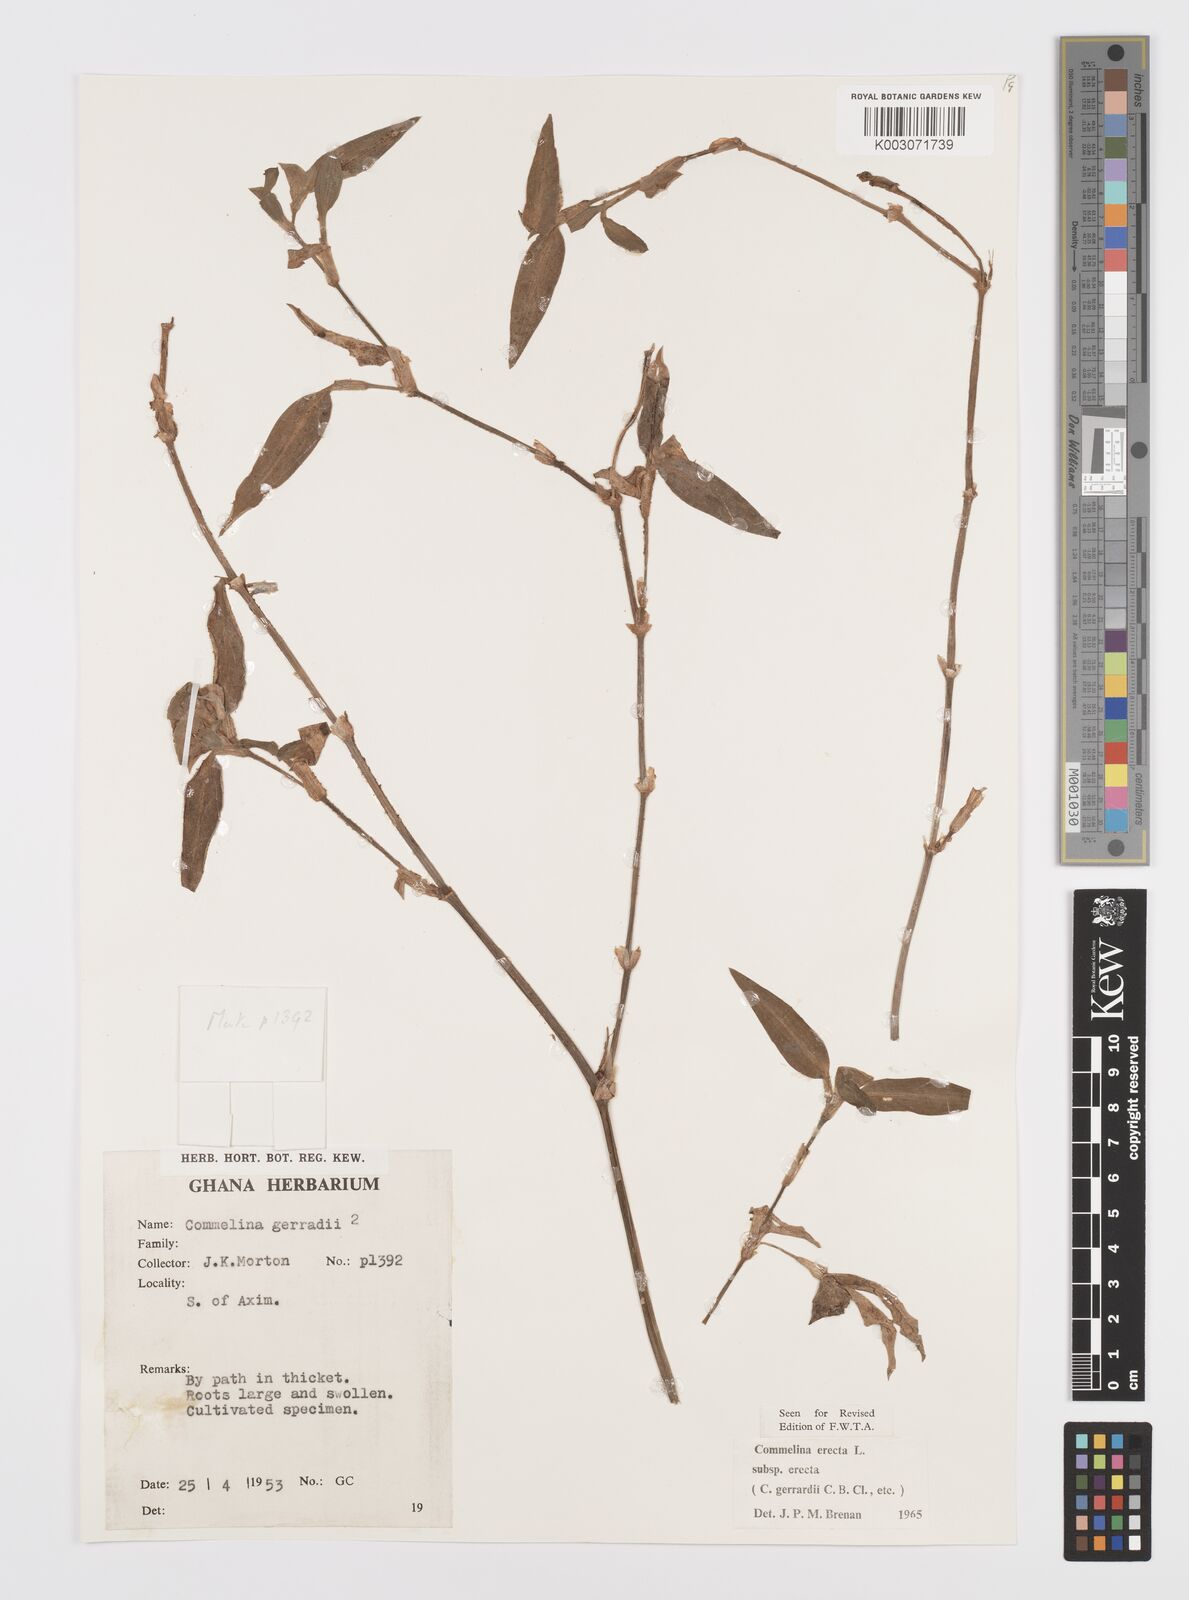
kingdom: Plantae
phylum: Tracheophyta
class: Liliopsida
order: Commelinales
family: Commelinaceae
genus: Commelina
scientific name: Commelina erecta
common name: Blousel blommetjie
